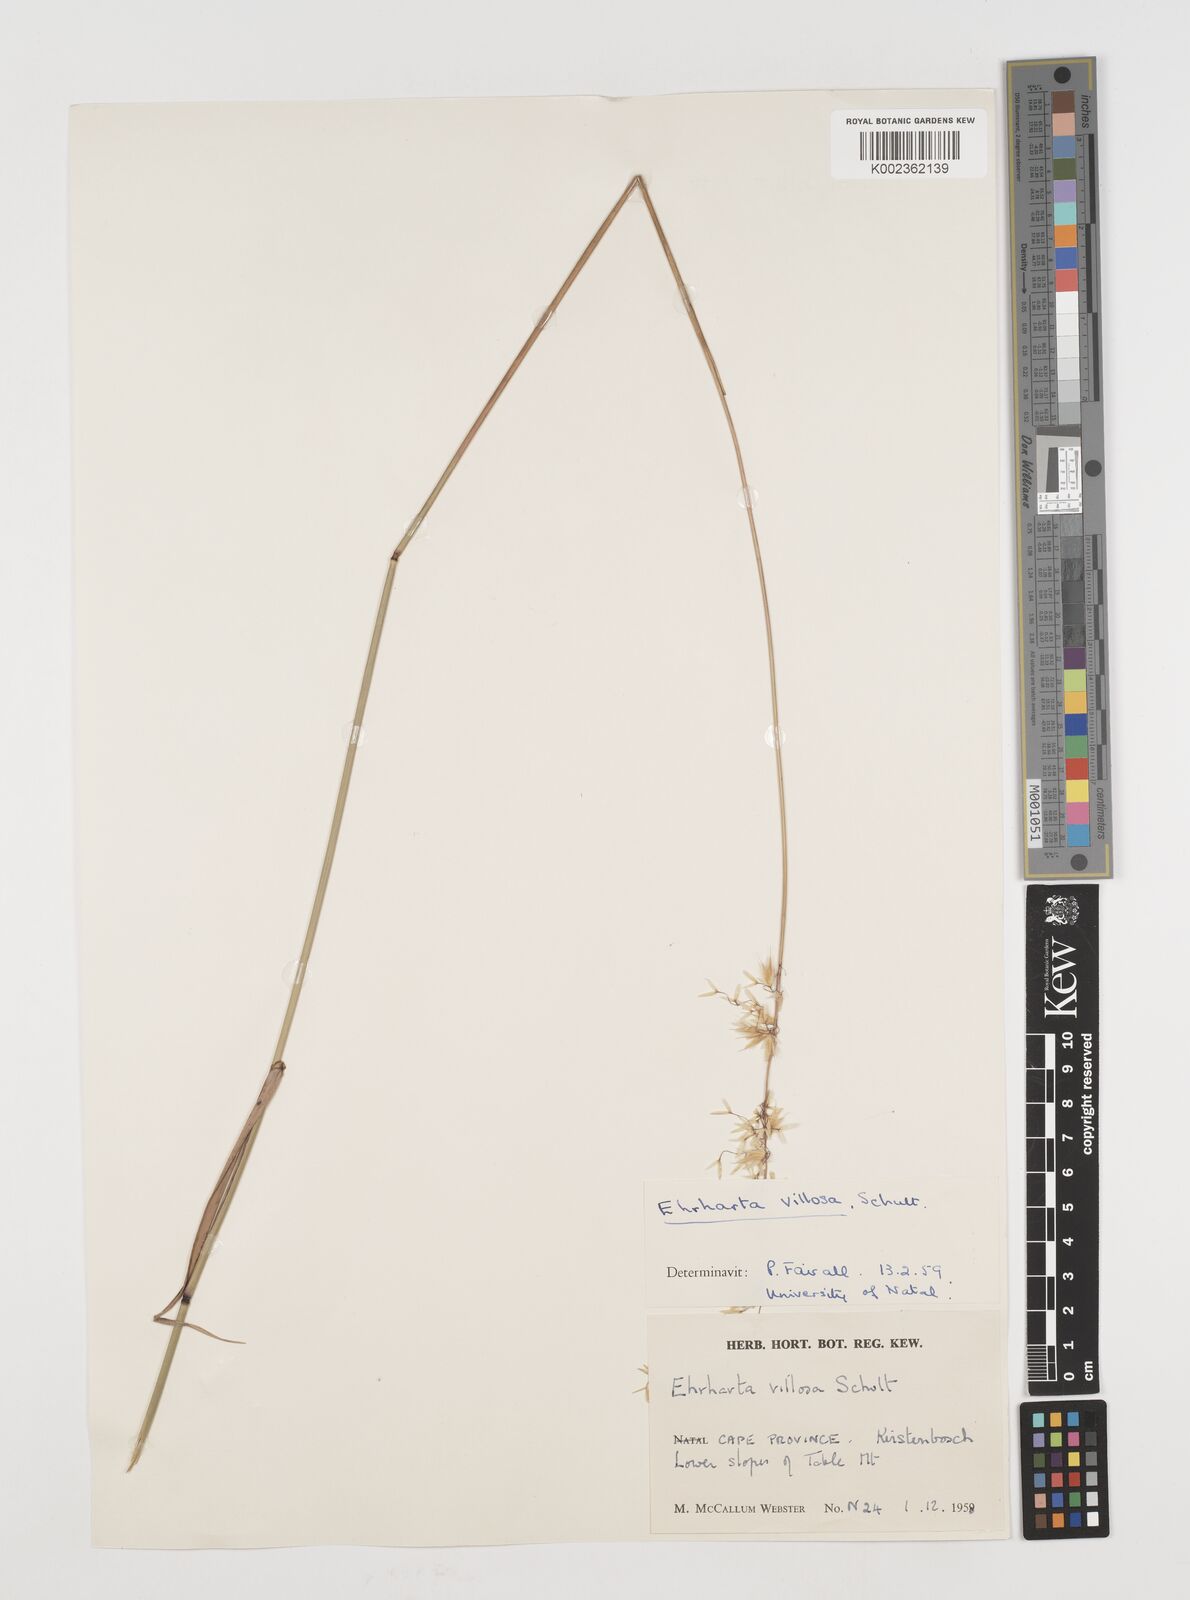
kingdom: Plantae
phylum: Tracheophyta
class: Liliopsida
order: Poales
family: Poaceae
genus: Ehrharta
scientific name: Ehrharta thunbergii
